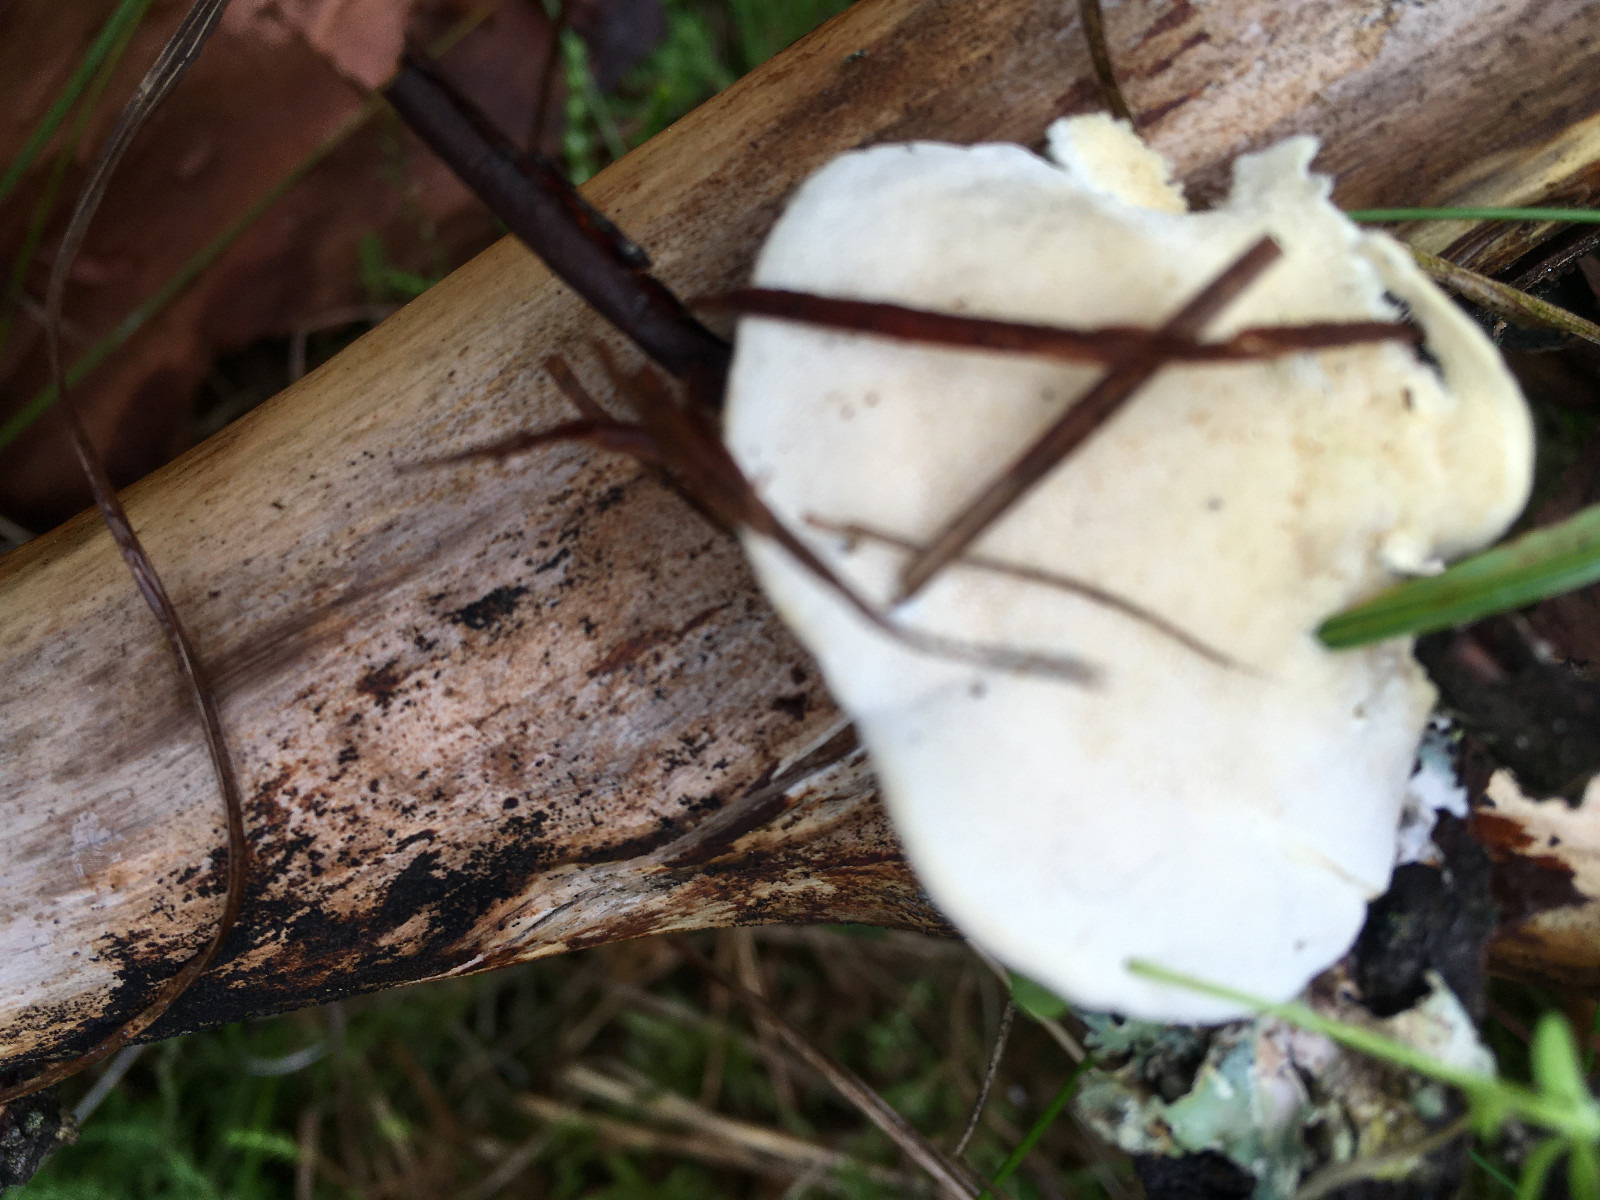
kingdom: Fungi
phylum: Basidiomycota
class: Agaricomycetes
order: Polyporales
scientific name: Polyporales
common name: poresvampordenen
